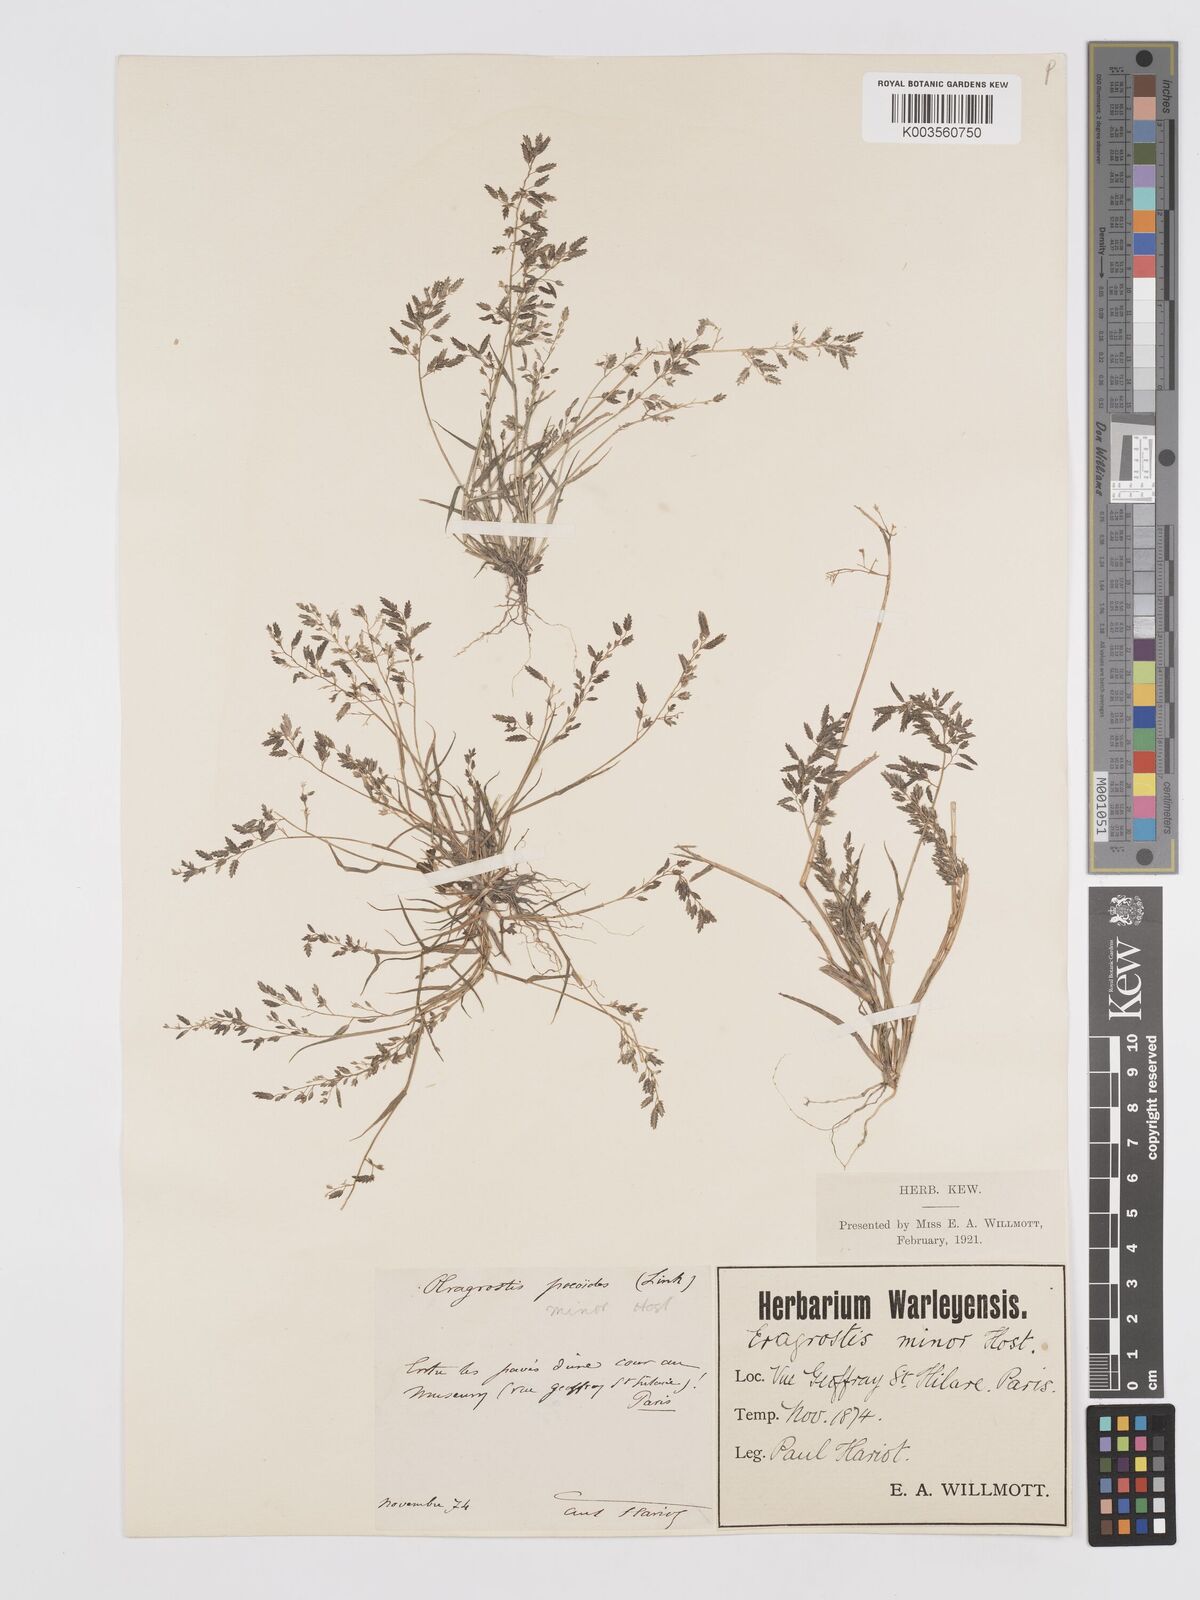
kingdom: Plantae
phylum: Tracheophyta
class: Liliopsida
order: Poales
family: Poaceae
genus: Eragrostis
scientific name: Eragrostis minor
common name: Small love-grass
